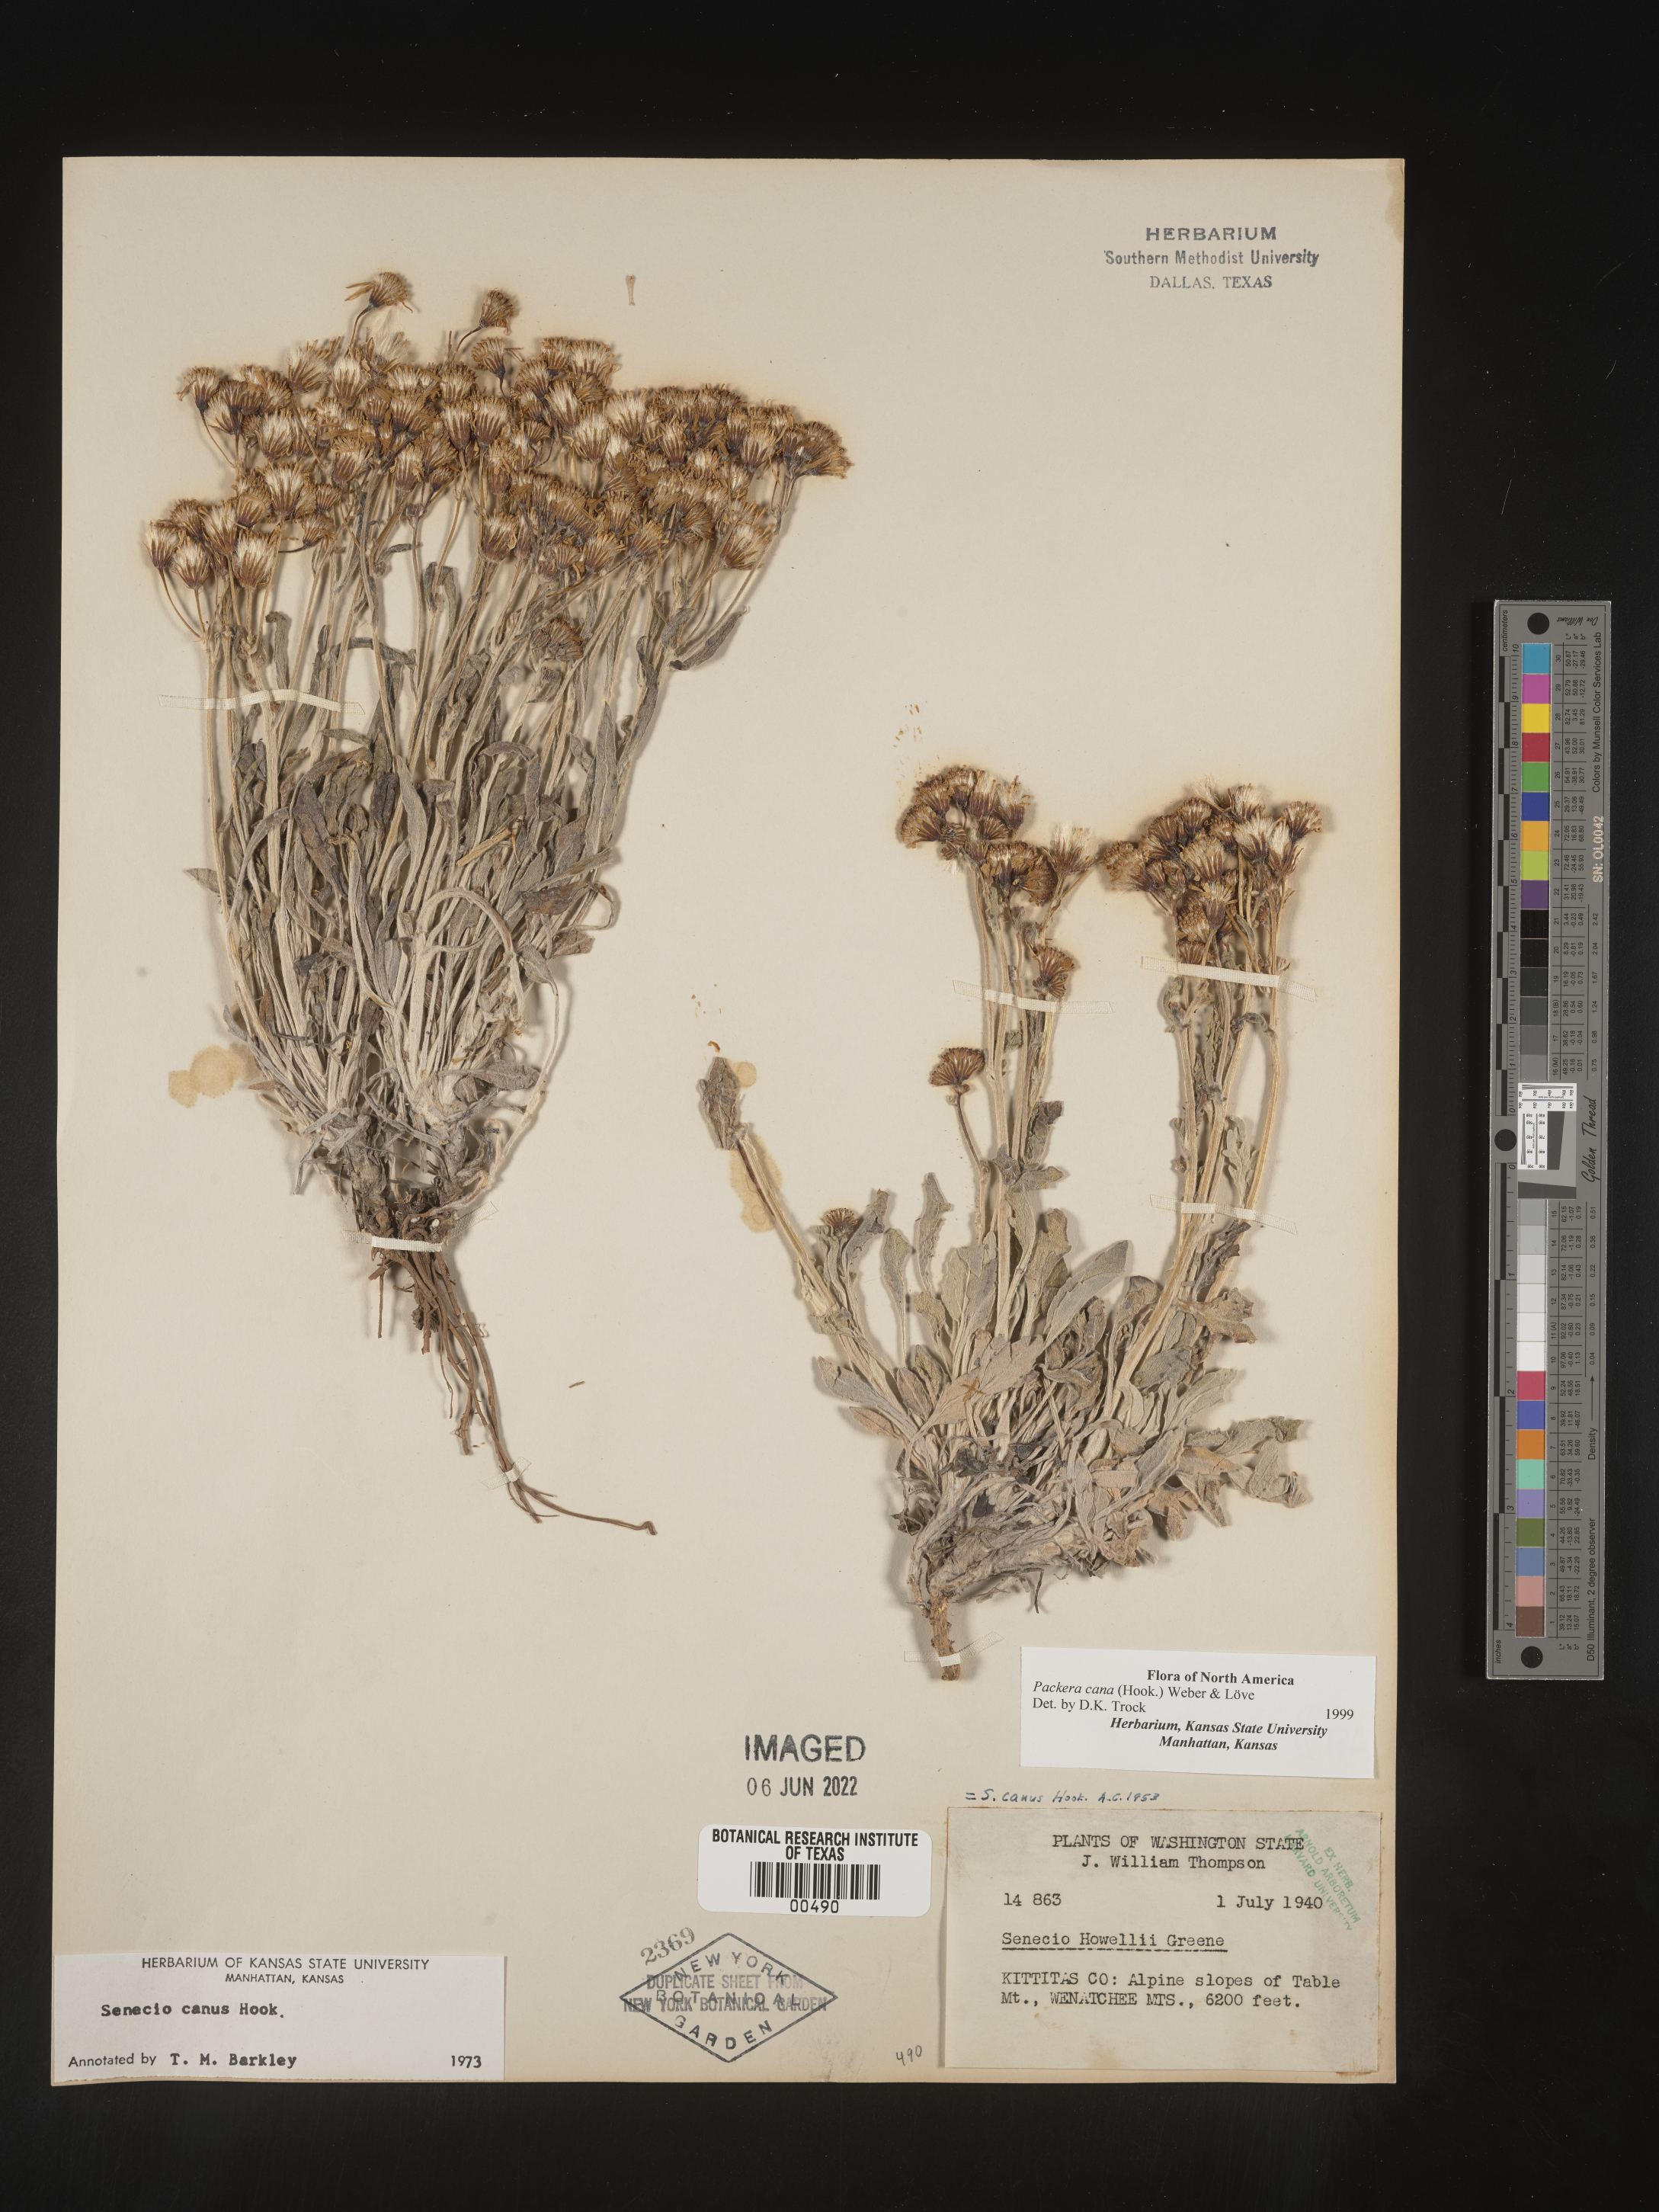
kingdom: Plantae
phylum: Tracheophyta
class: Magnoliopsida
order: Asterales
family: Asteraceae
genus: Packera
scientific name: Packera cana
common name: Woolly groundsel
